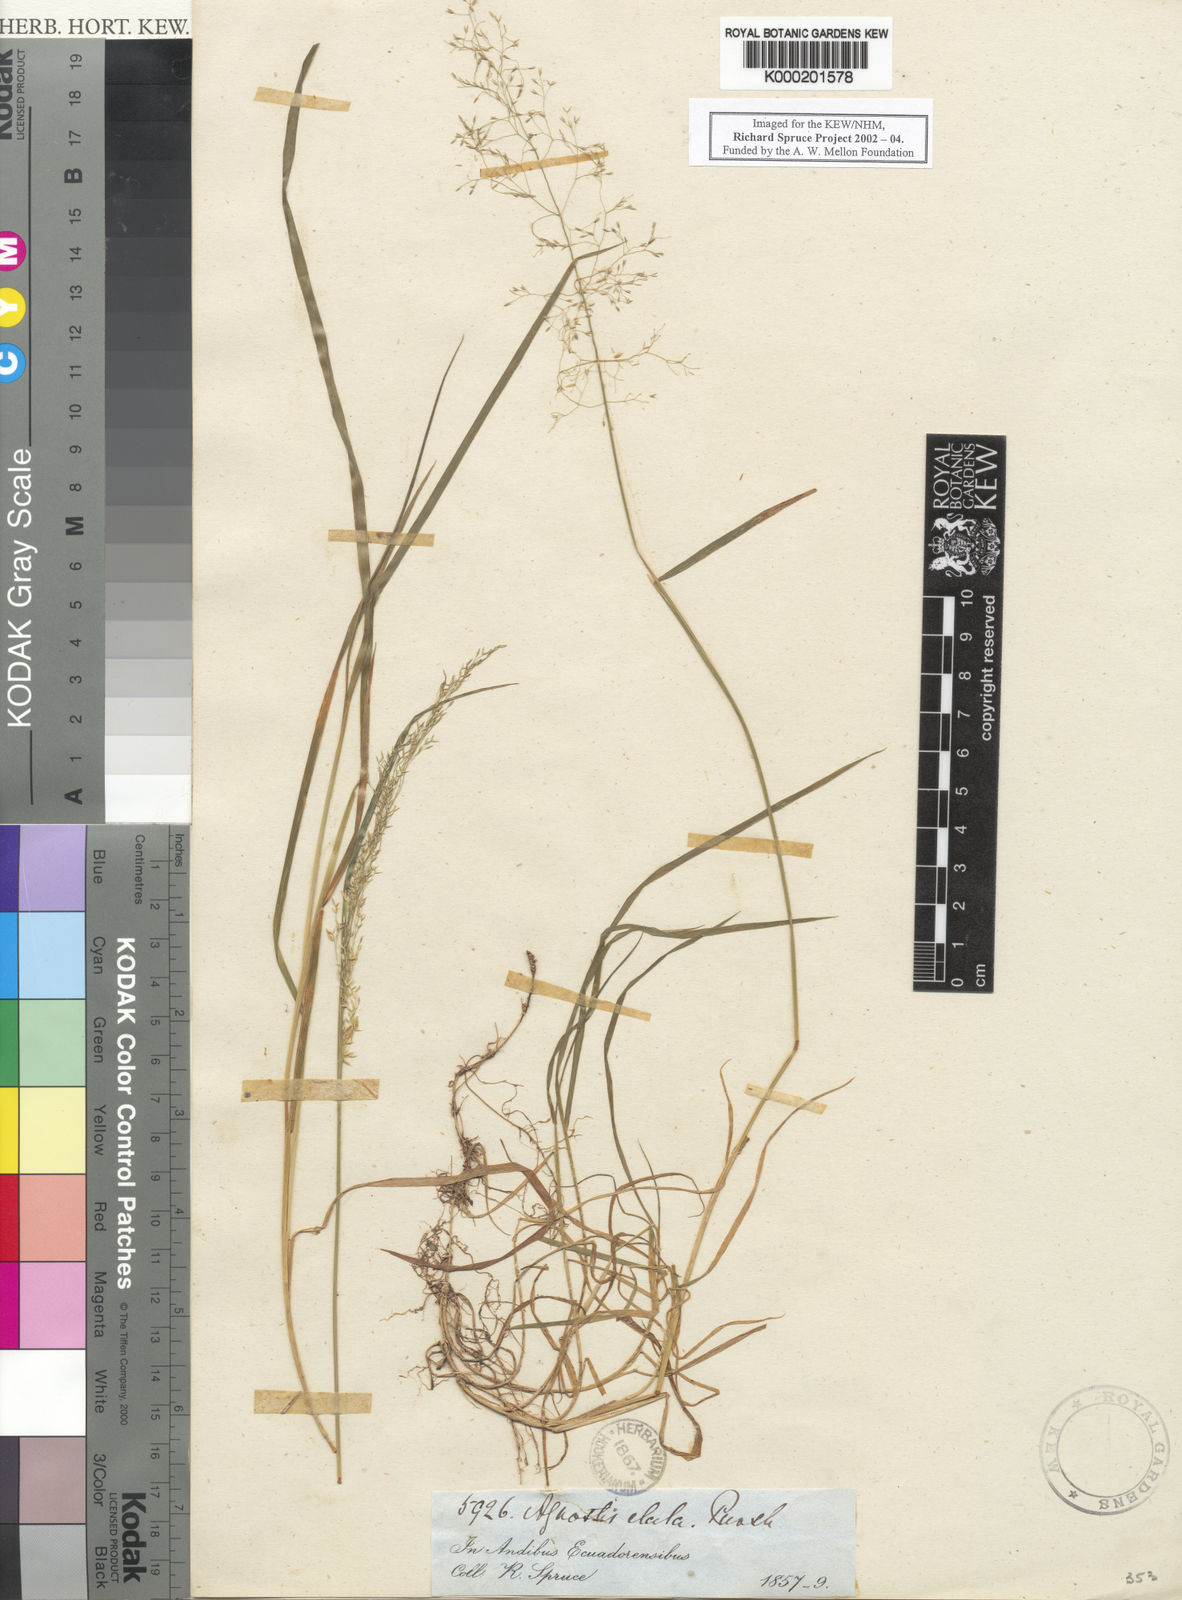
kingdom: Plantae
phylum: Tracheophyta
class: Liliopsida
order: Poales
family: Poaceae
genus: Agrostis
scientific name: Agrostis perennans
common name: Autumn bent
